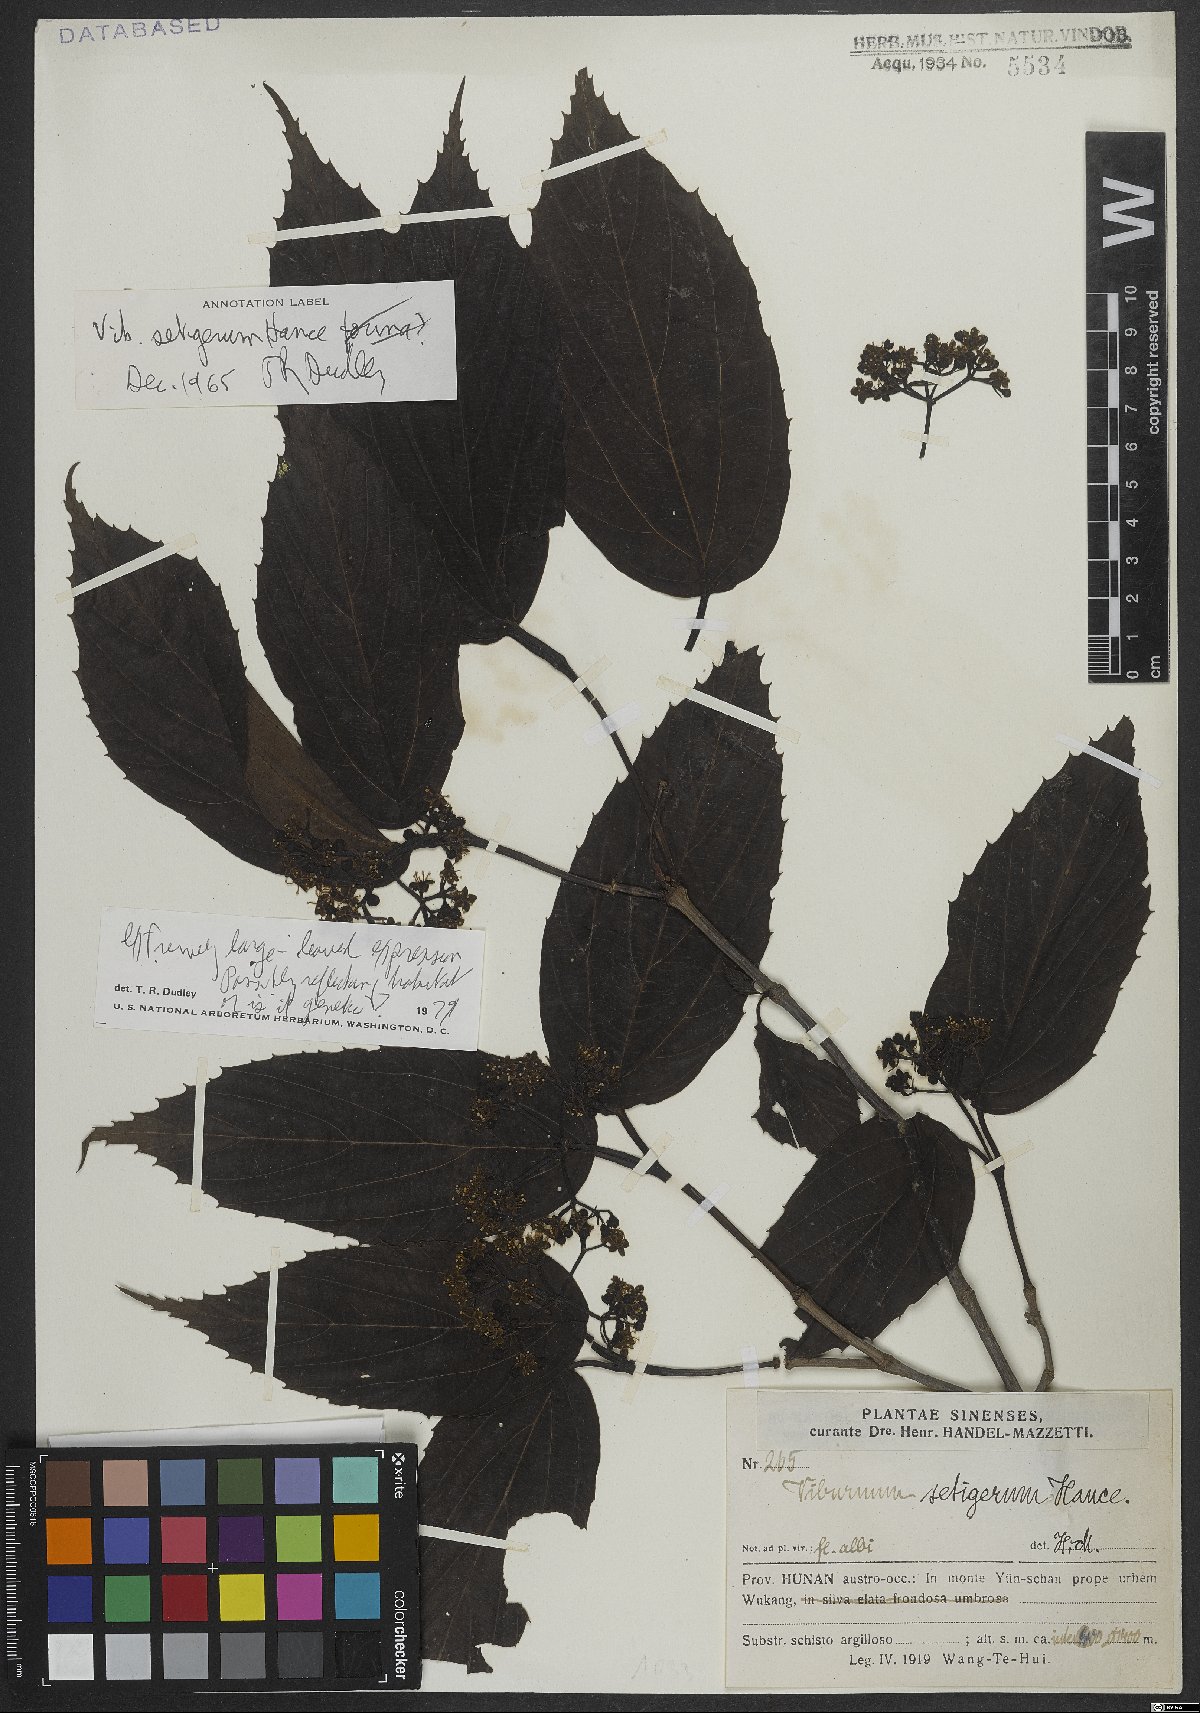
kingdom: Plantae
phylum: Tracheophyta
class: Magnoliopsida
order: Dipsacales
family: Viburnaceae
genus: Viburnum
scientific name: Viburnum setigerum
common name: Tea viburnum
